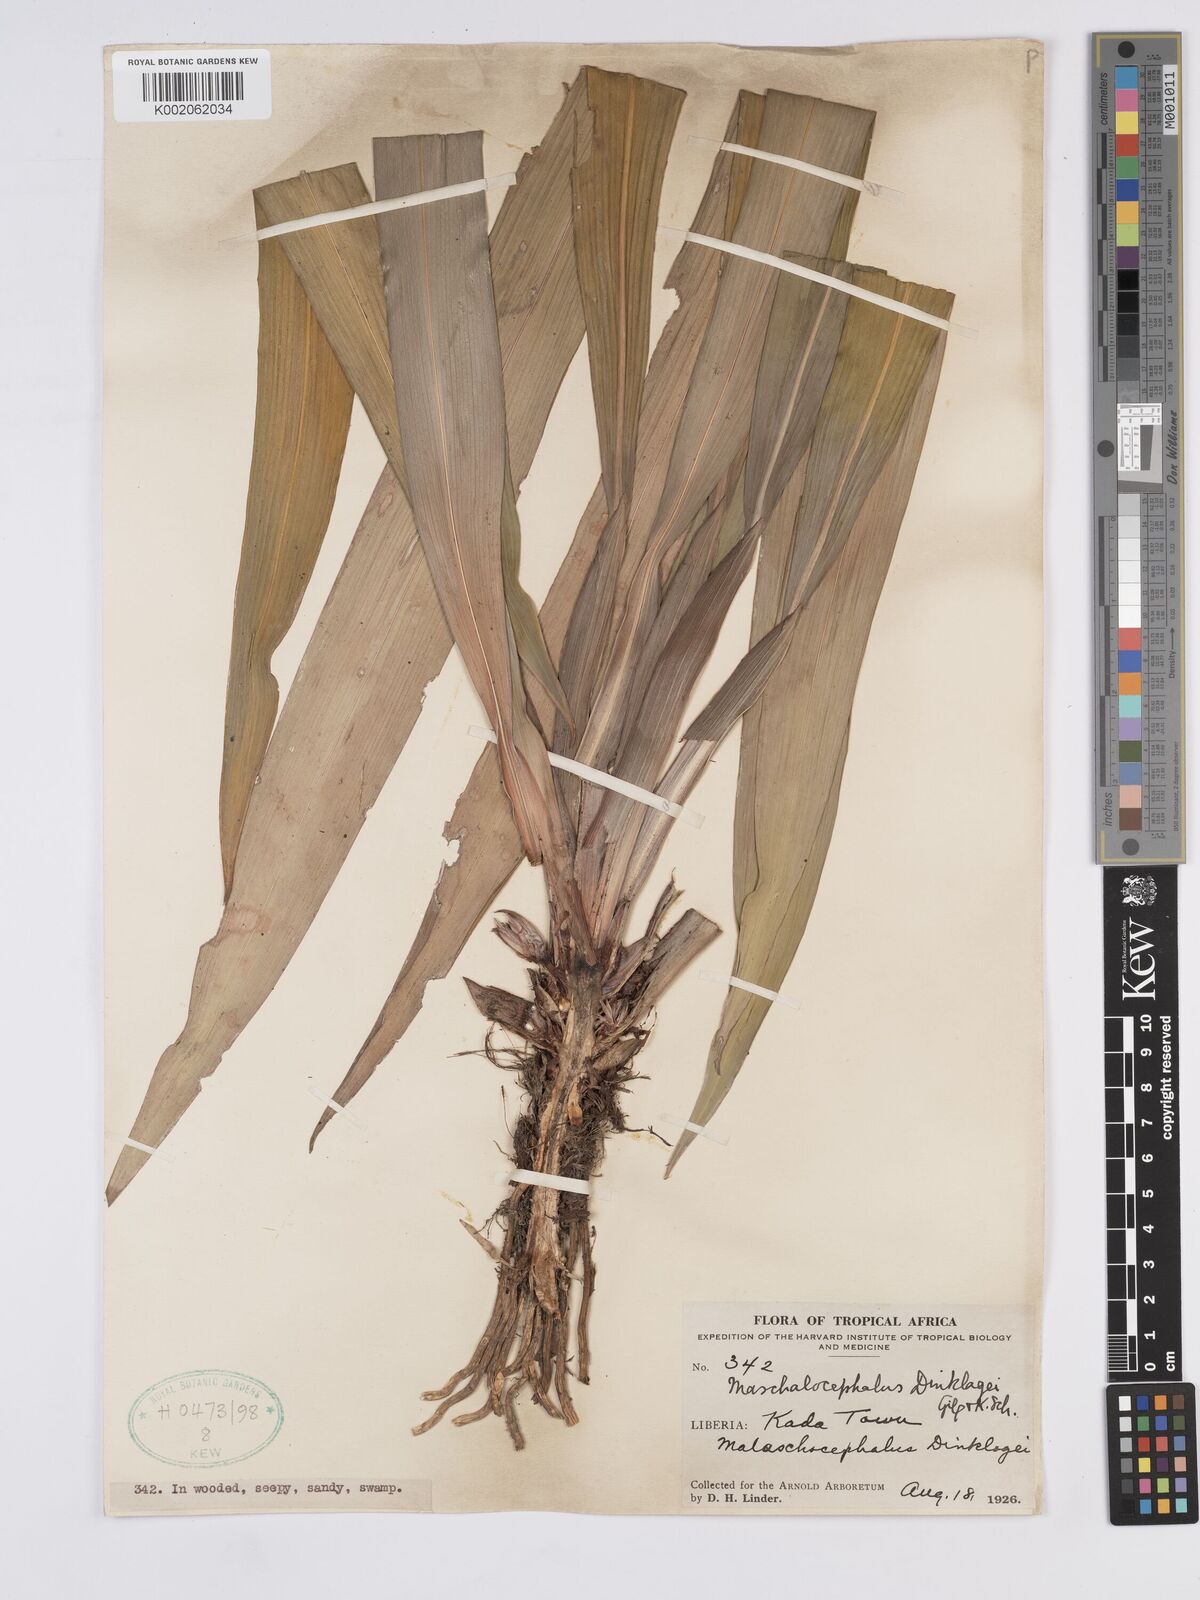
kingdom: Plantae
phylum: Tracheophyta
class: Liliopsida
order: Poales
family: Rapateaceae
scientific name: Rapateaceae
